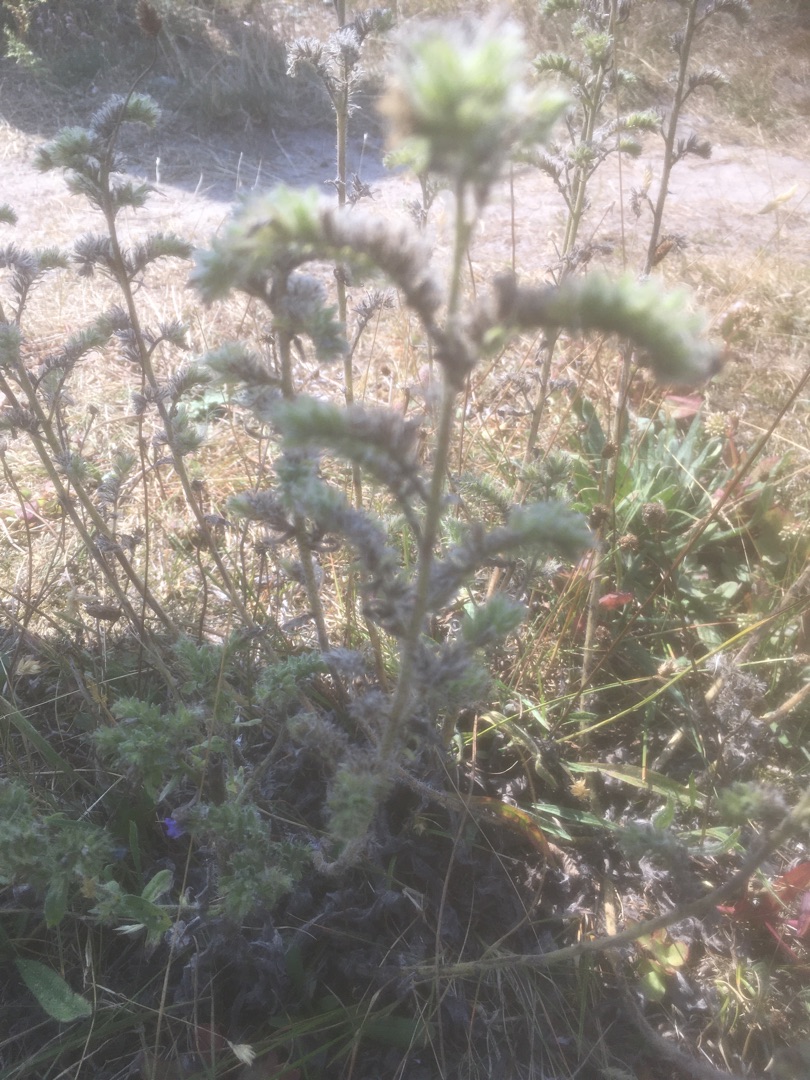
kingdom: Plantae
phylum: Tracheophyta
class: Magnoliopsida
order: Boraginales
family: Boraginaceae
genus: Echium
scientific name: Echium vulgare
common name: Slangehoved
